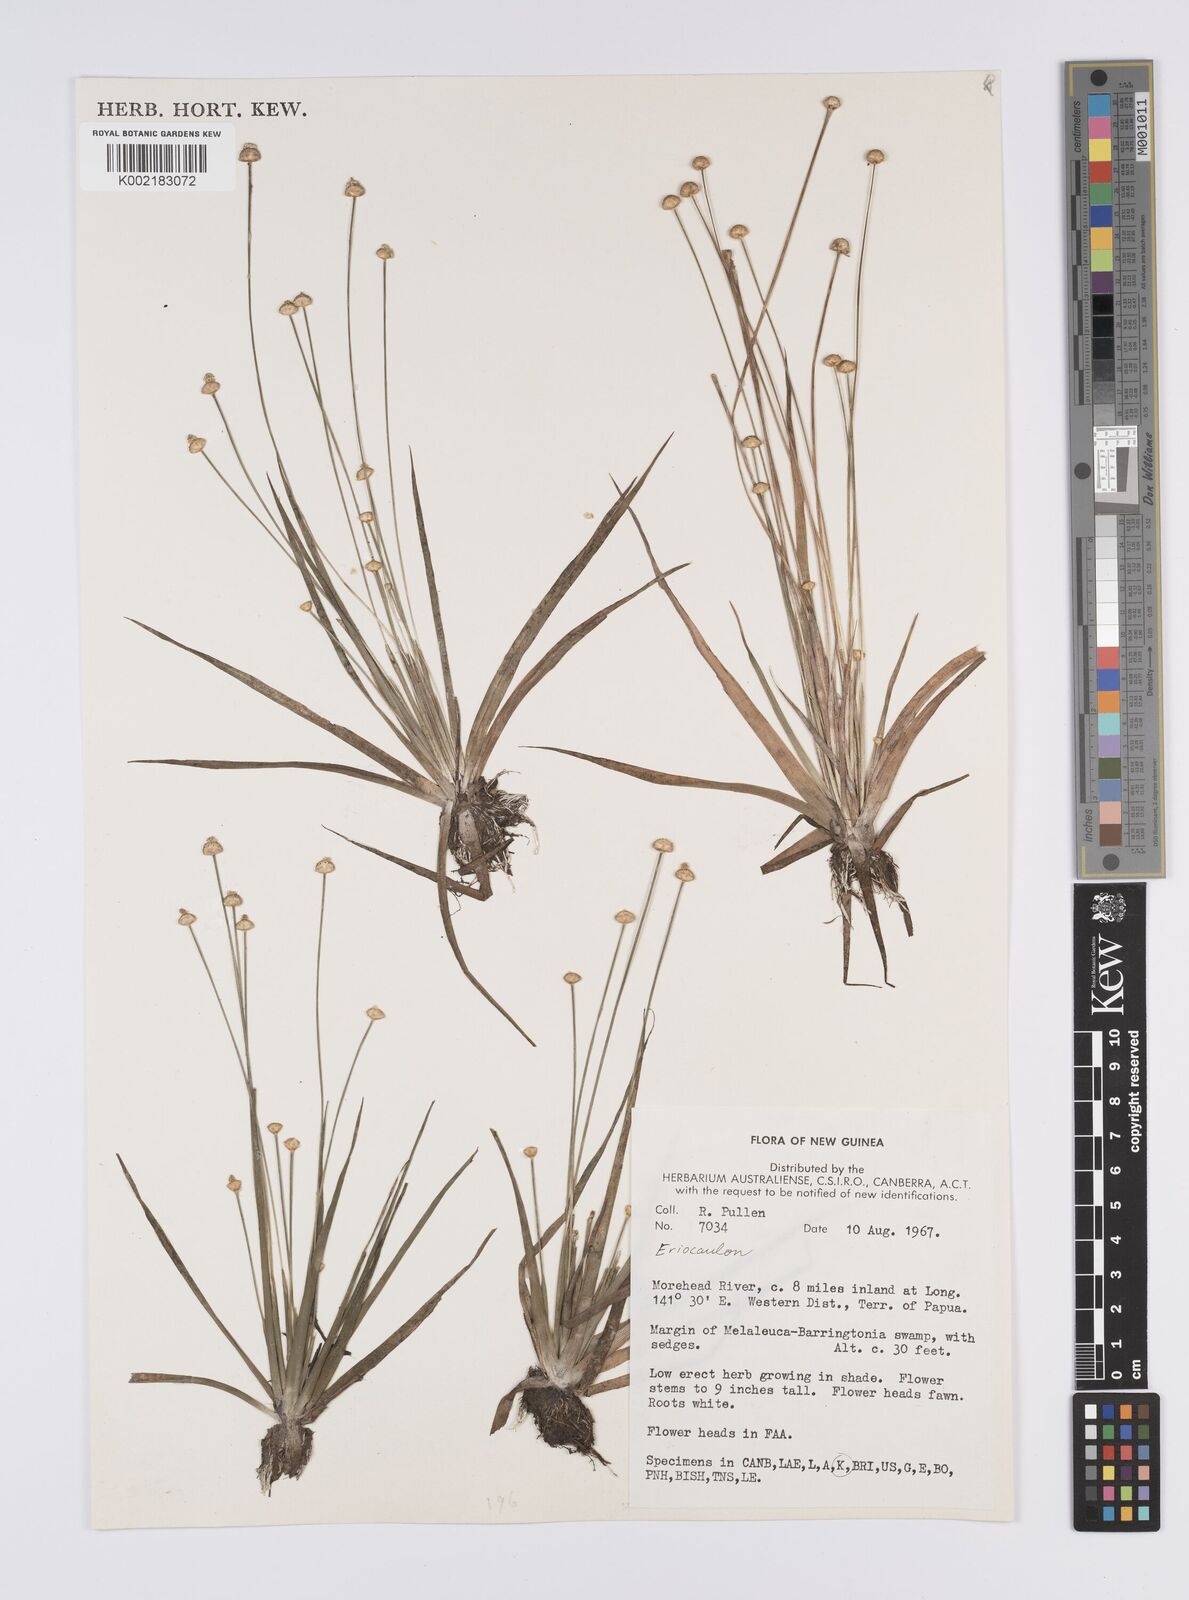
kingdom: Plantae
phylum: Tracheophyta
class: Liliopsida
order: Poales
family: Eriocaulaceae
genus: Eriocaulon
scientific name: Eriocaulon
